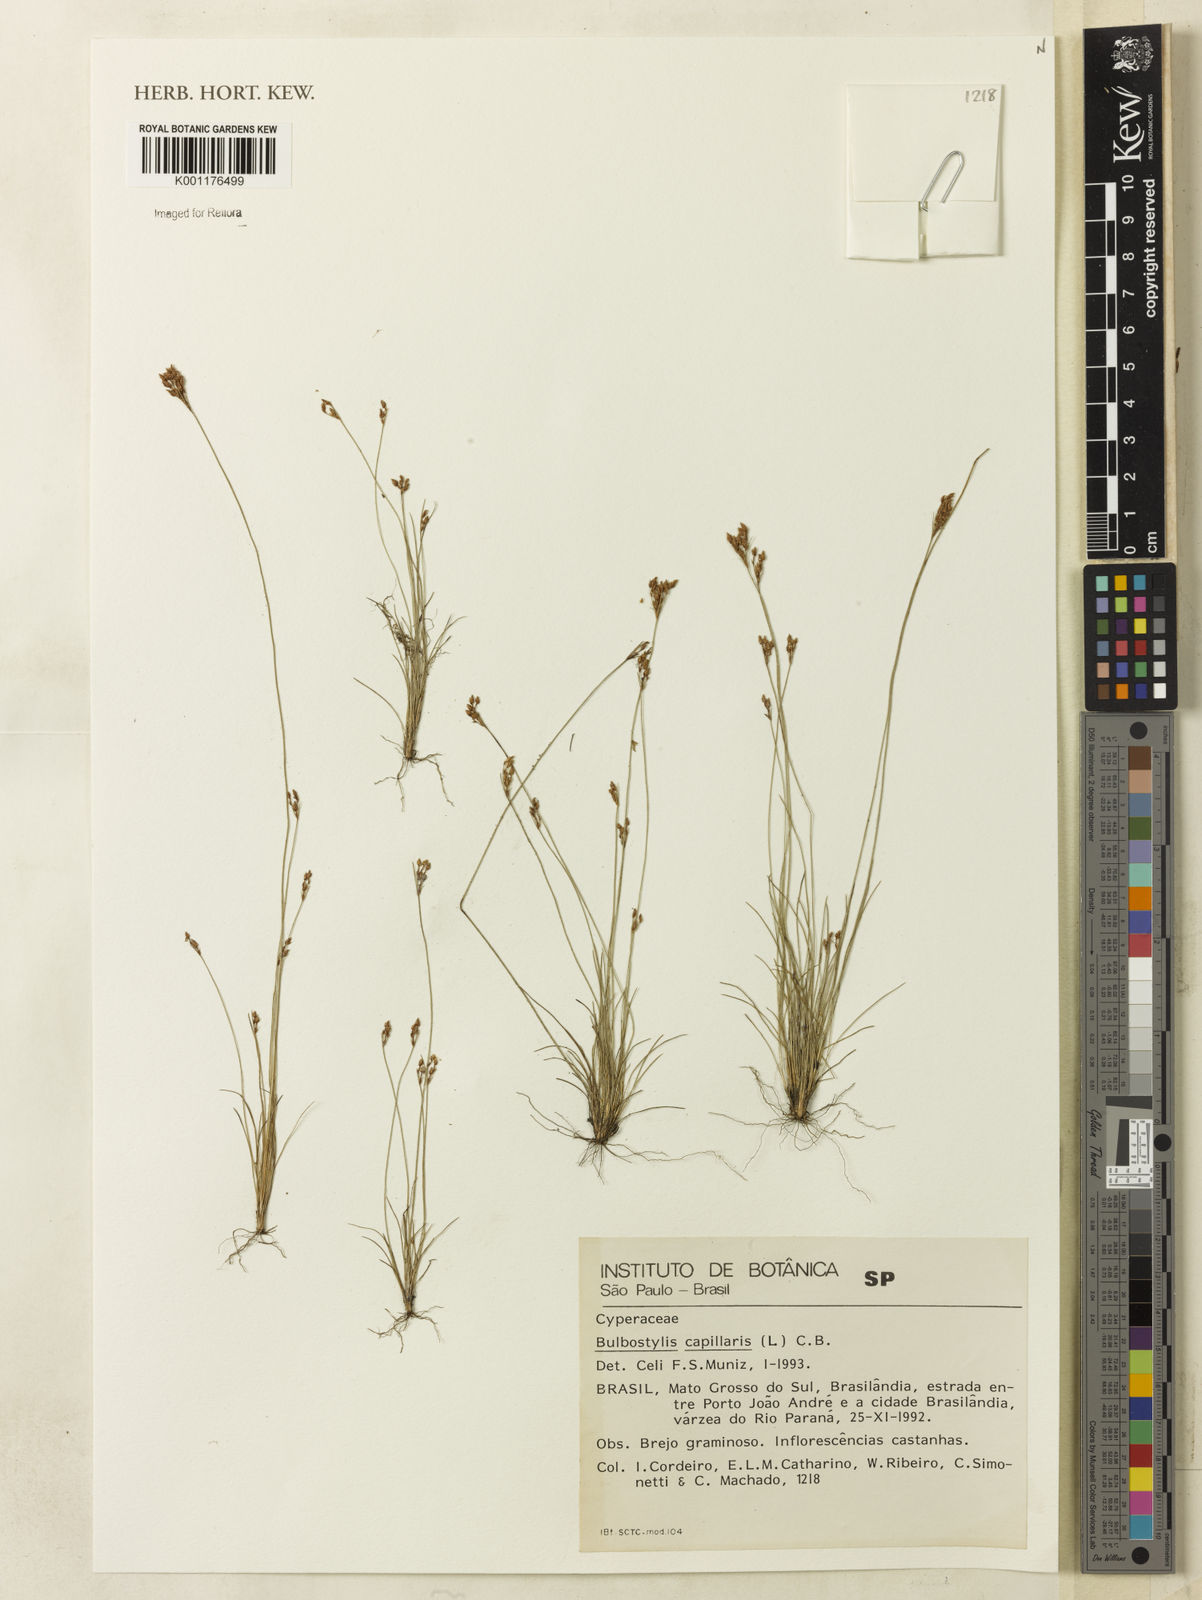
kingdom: Plantae
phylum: Tracheophyta
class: Liliopsida
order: Poales
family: Cyperaceae
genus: Bulbostylis
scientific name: Bulbostylis capillaris
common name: Densetuft hairsedge
